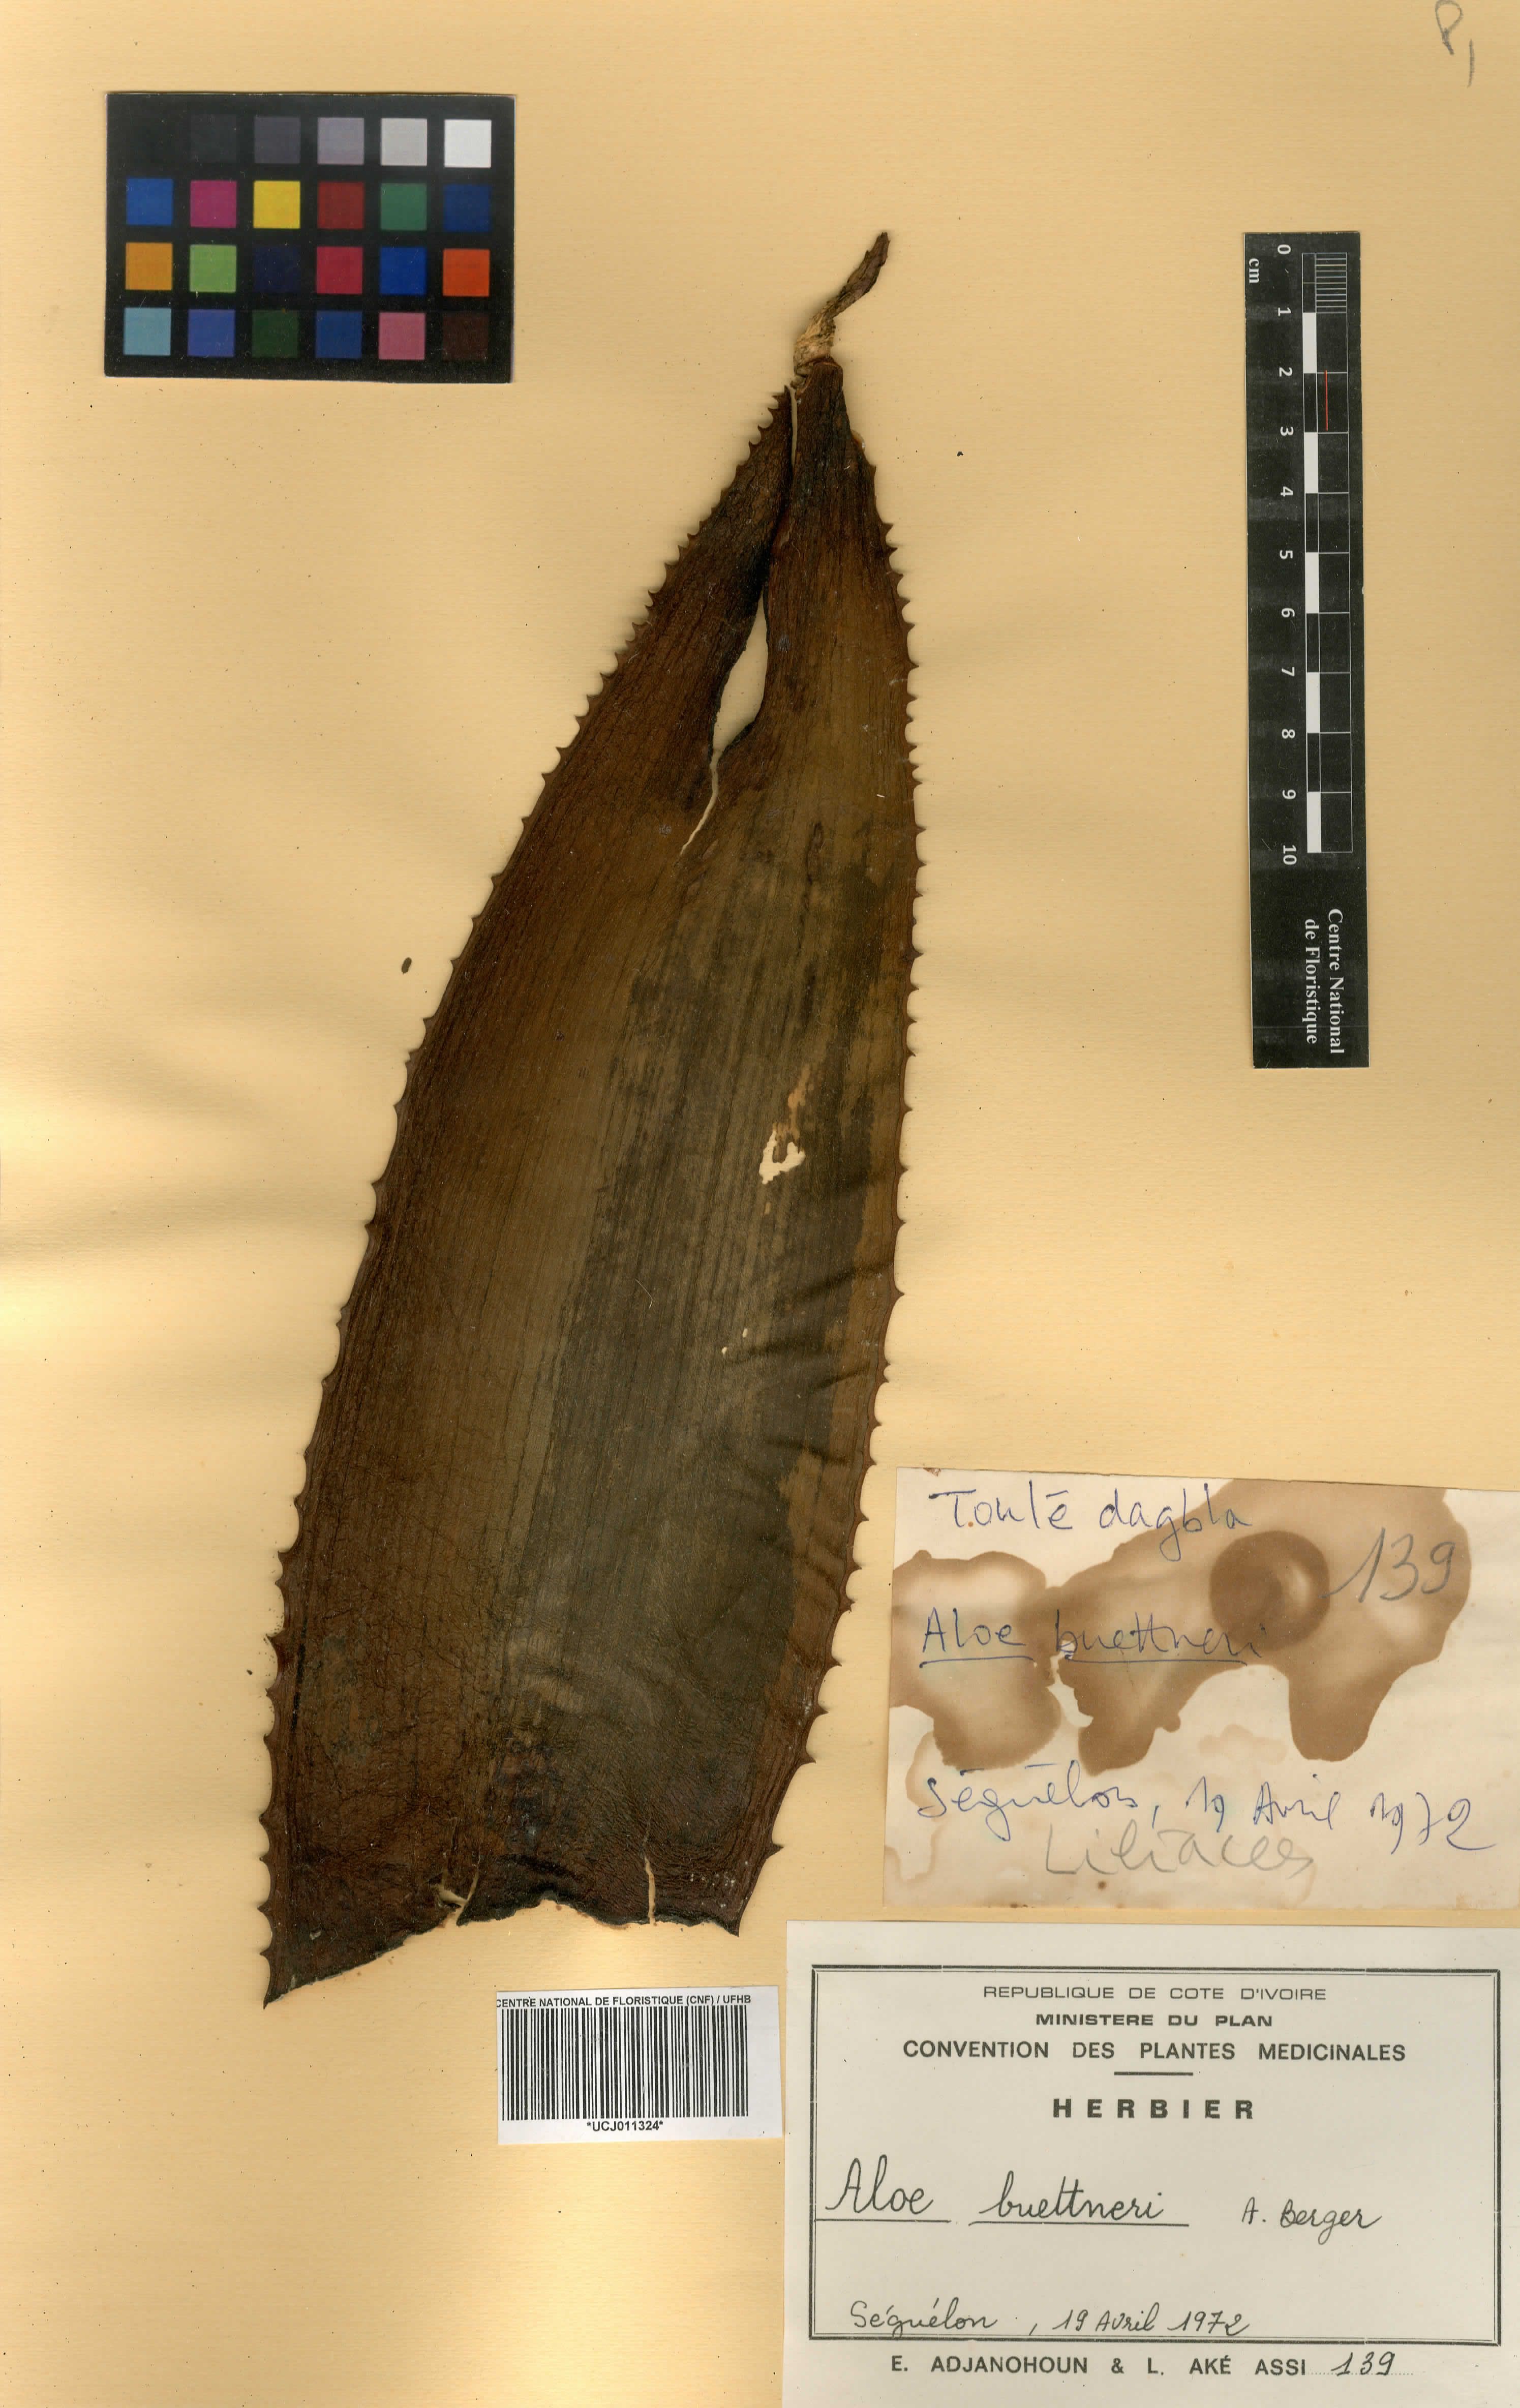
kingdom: Plantae
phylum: Tracheophyta
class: Liliopsida
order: Asparagales
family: Asphodelaceae
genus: Aloe
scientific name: Aloe macrocarpa
